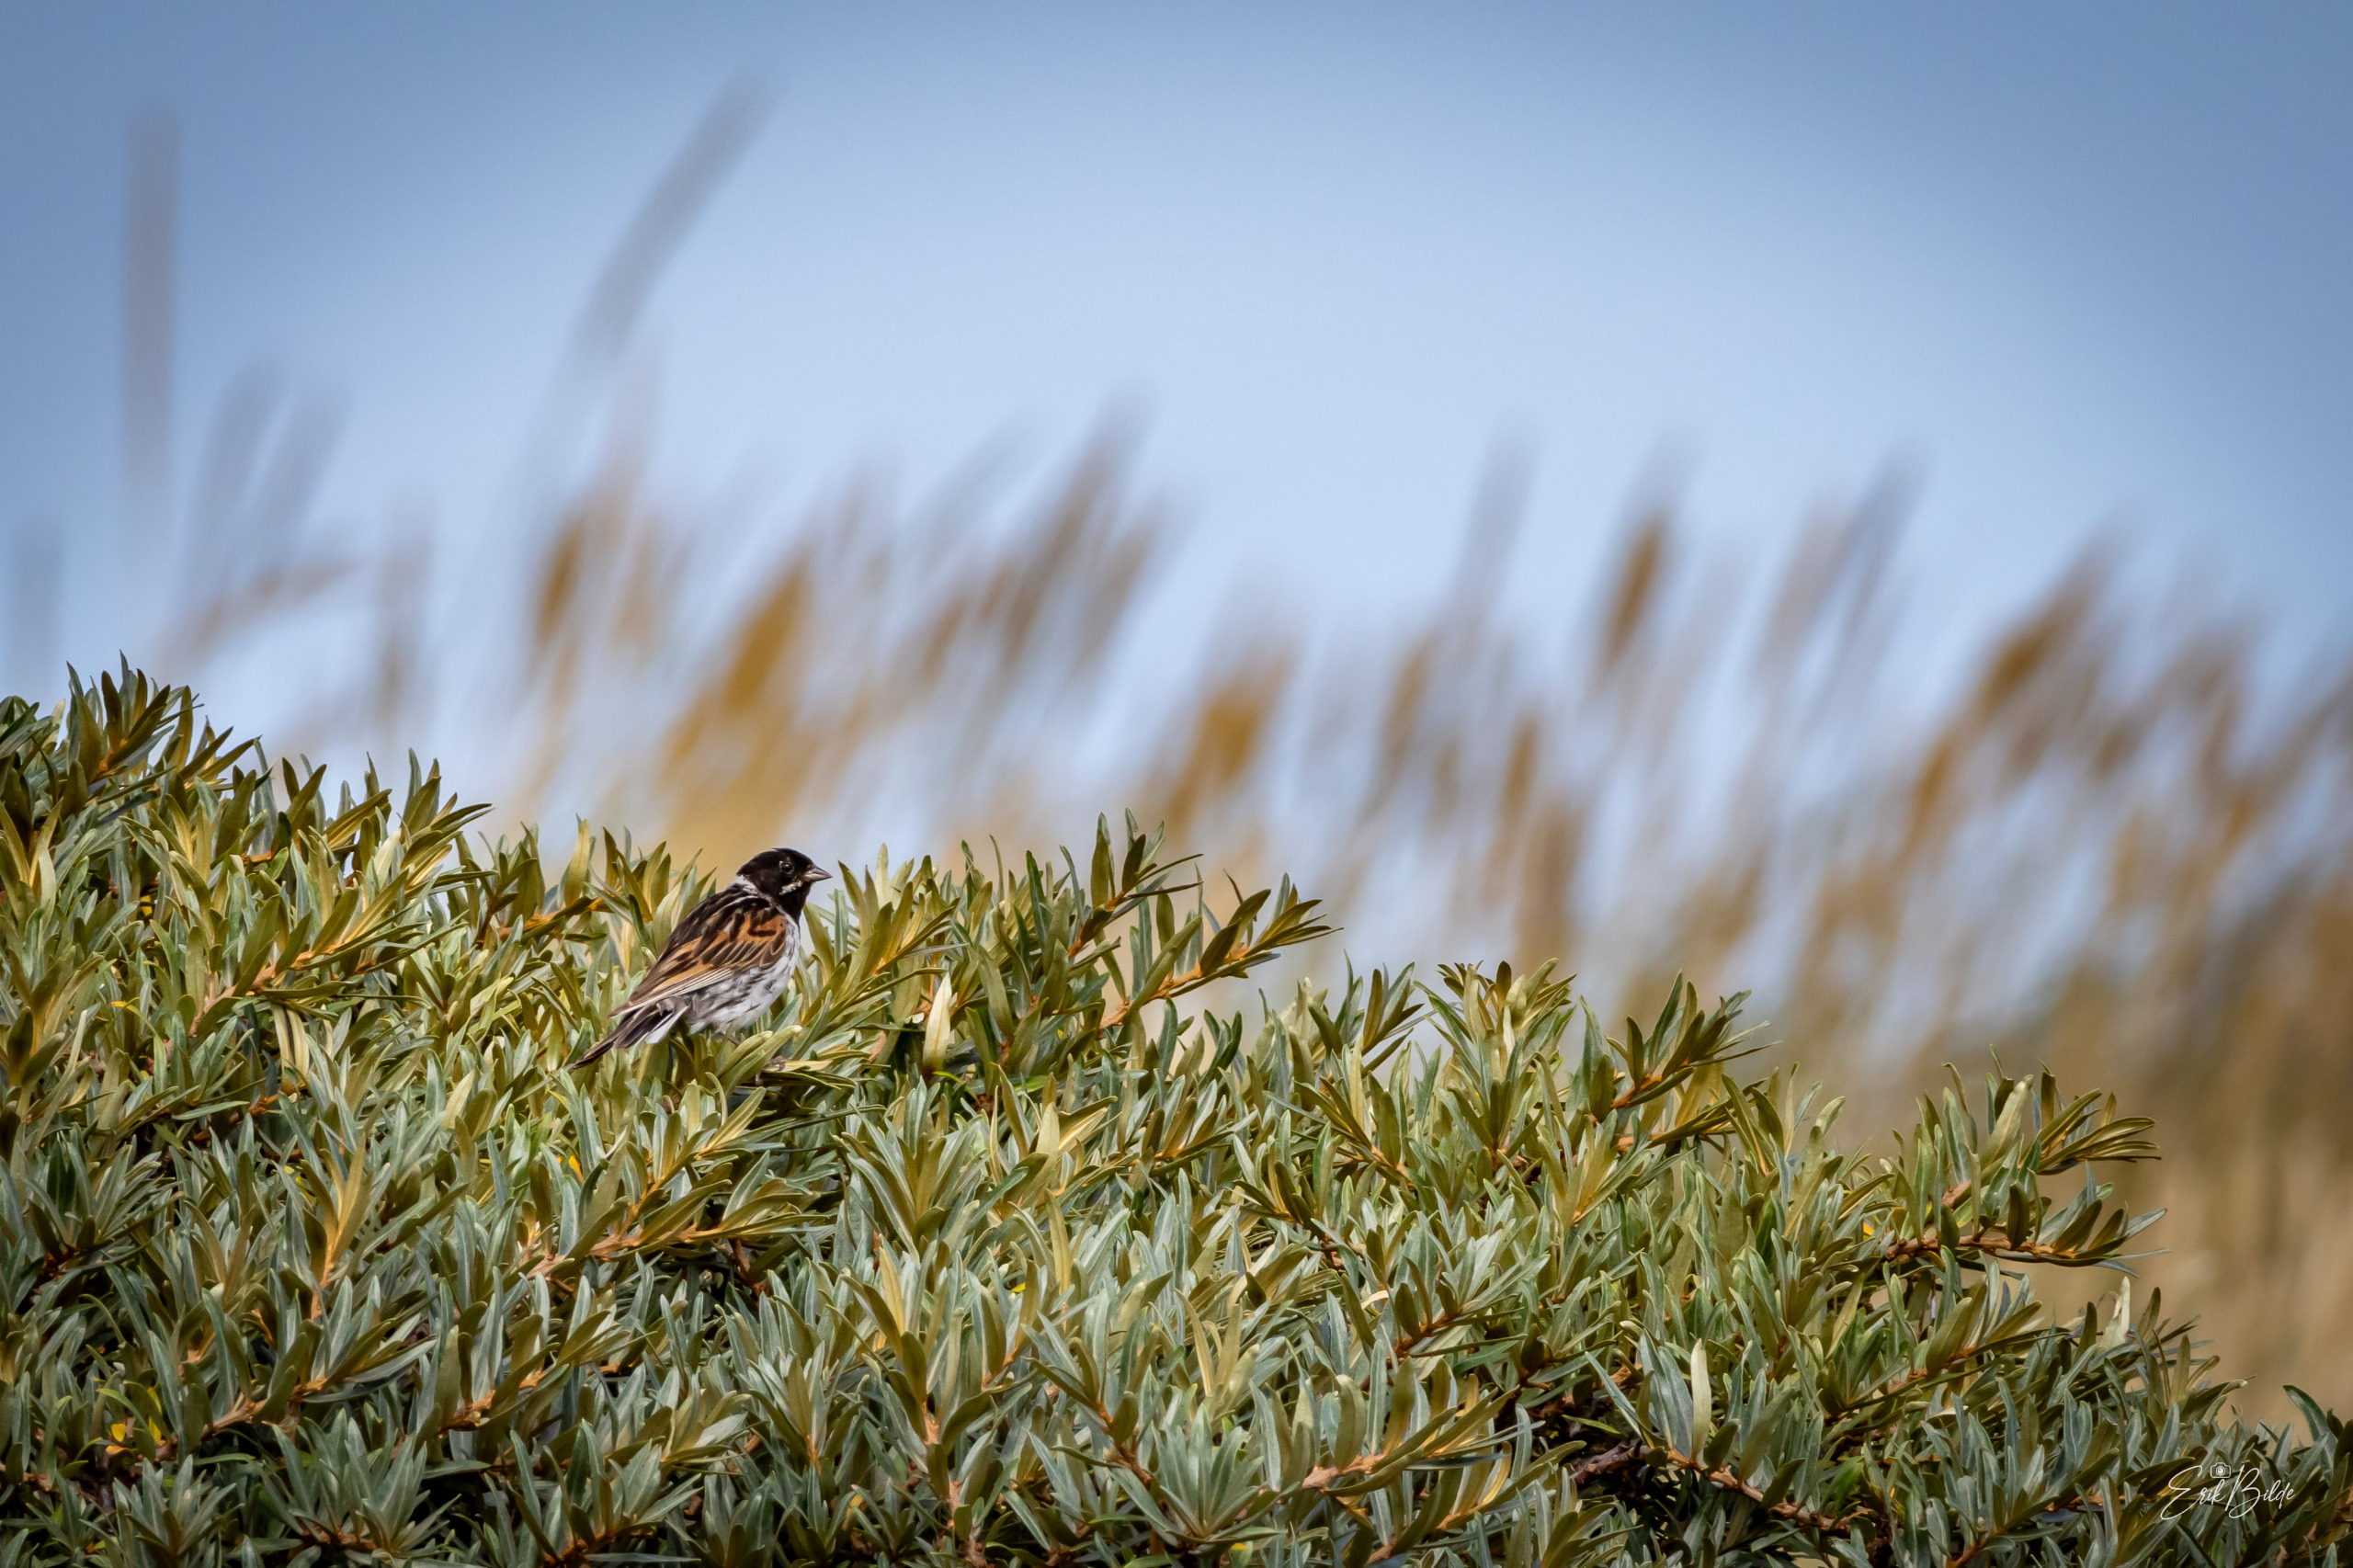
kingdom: Animalia
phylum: Chordata
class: Aves
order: Passeriformes
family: Emberizidae
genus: Emberiza
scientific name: Emberiza schoeniclus
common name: Rørspurv
